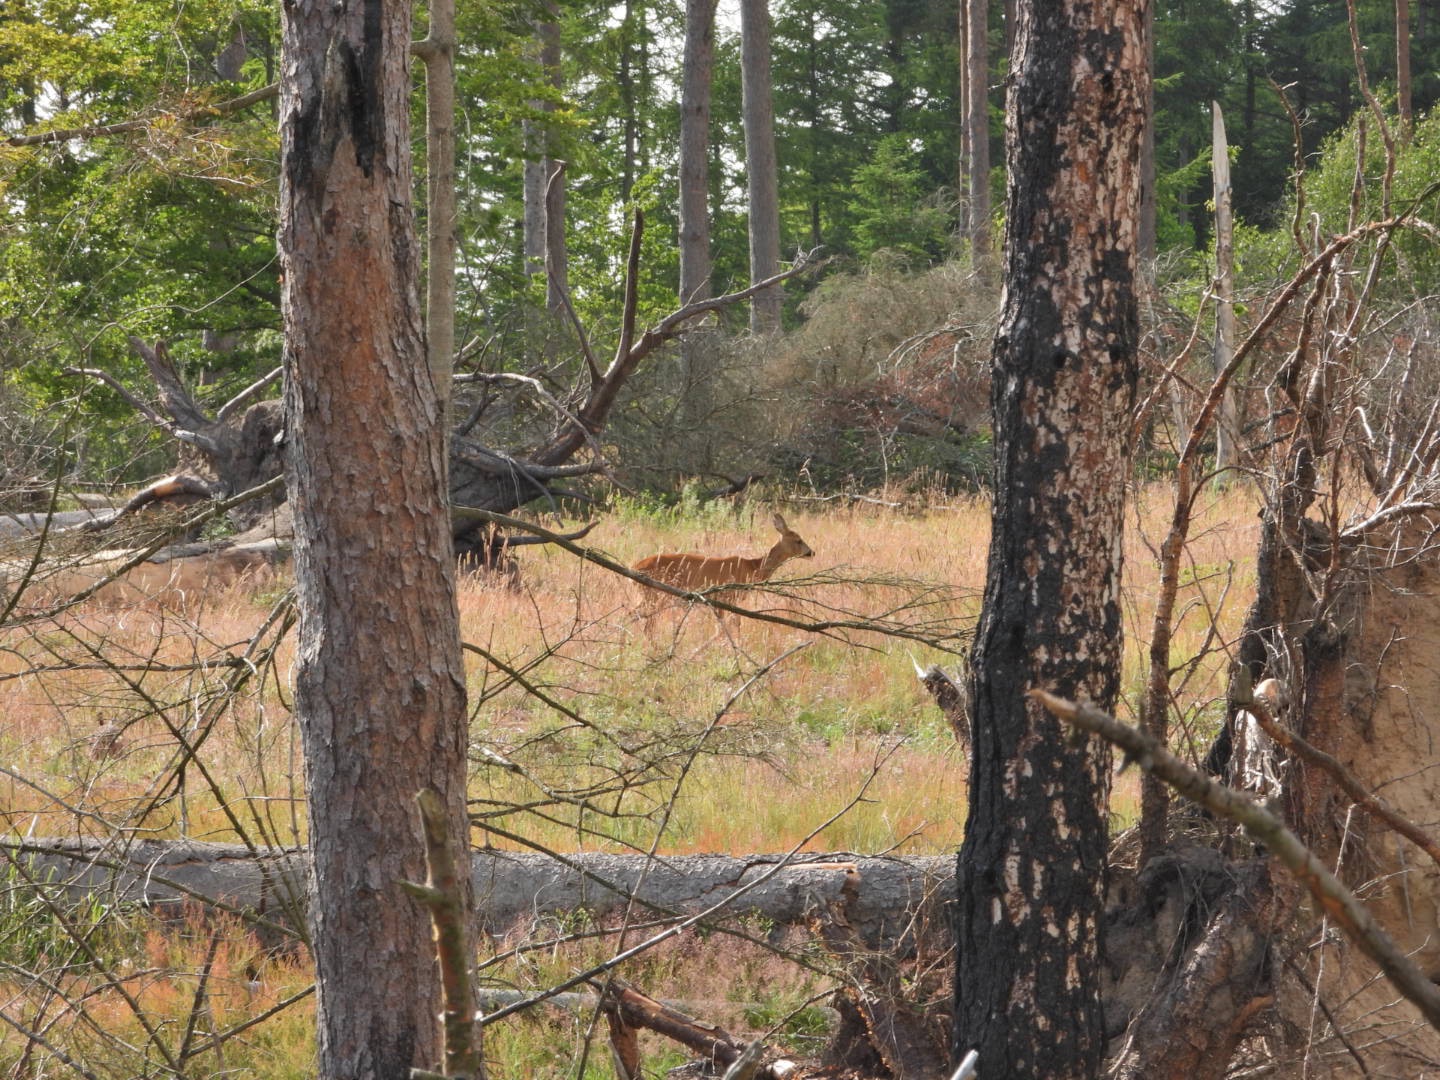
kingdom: Animalia
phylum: Chordata
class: Mammalia
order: Artiodactyla
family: Cervidae
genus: Capreolus
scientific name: Capreolus capreolus
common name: Rådyr
